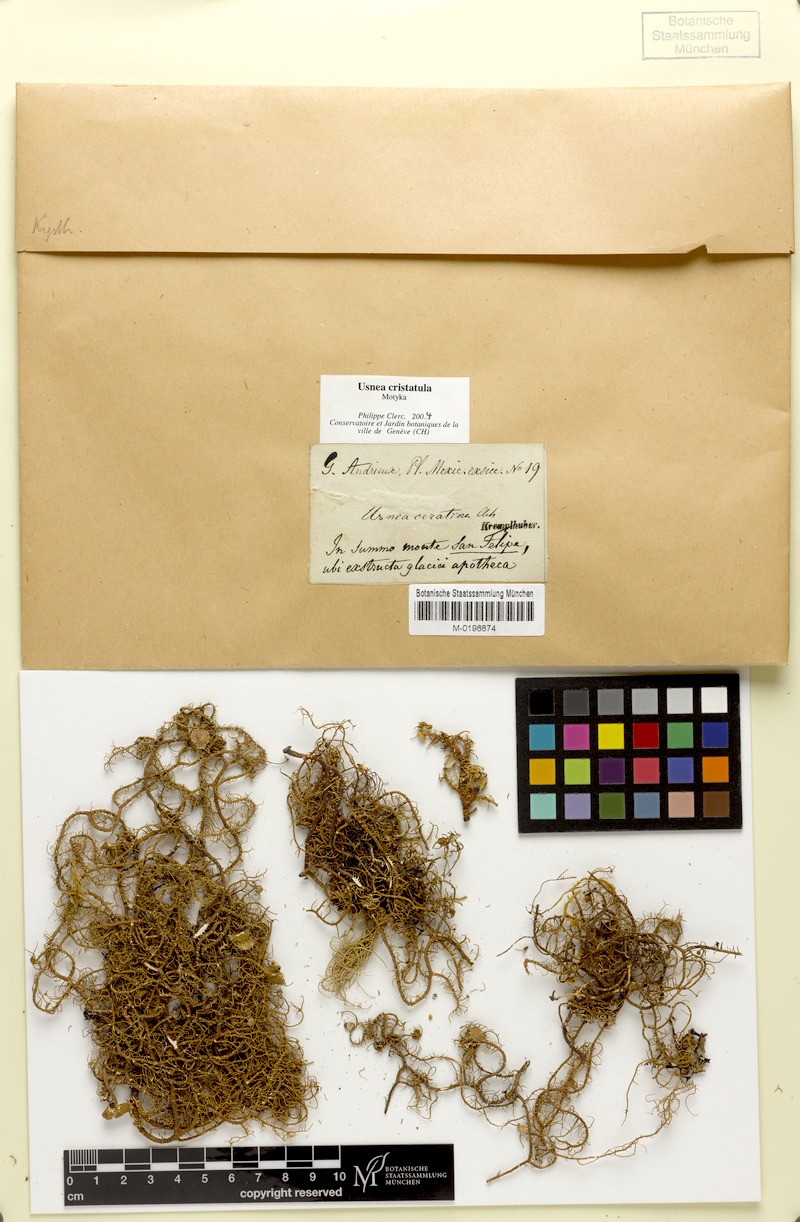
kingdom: Fungi
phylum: Ascomycota
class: Lecanoromycetes
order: Lecanorales
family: Parmeliaceae
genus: Usnea
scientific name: Usnea cristatula
